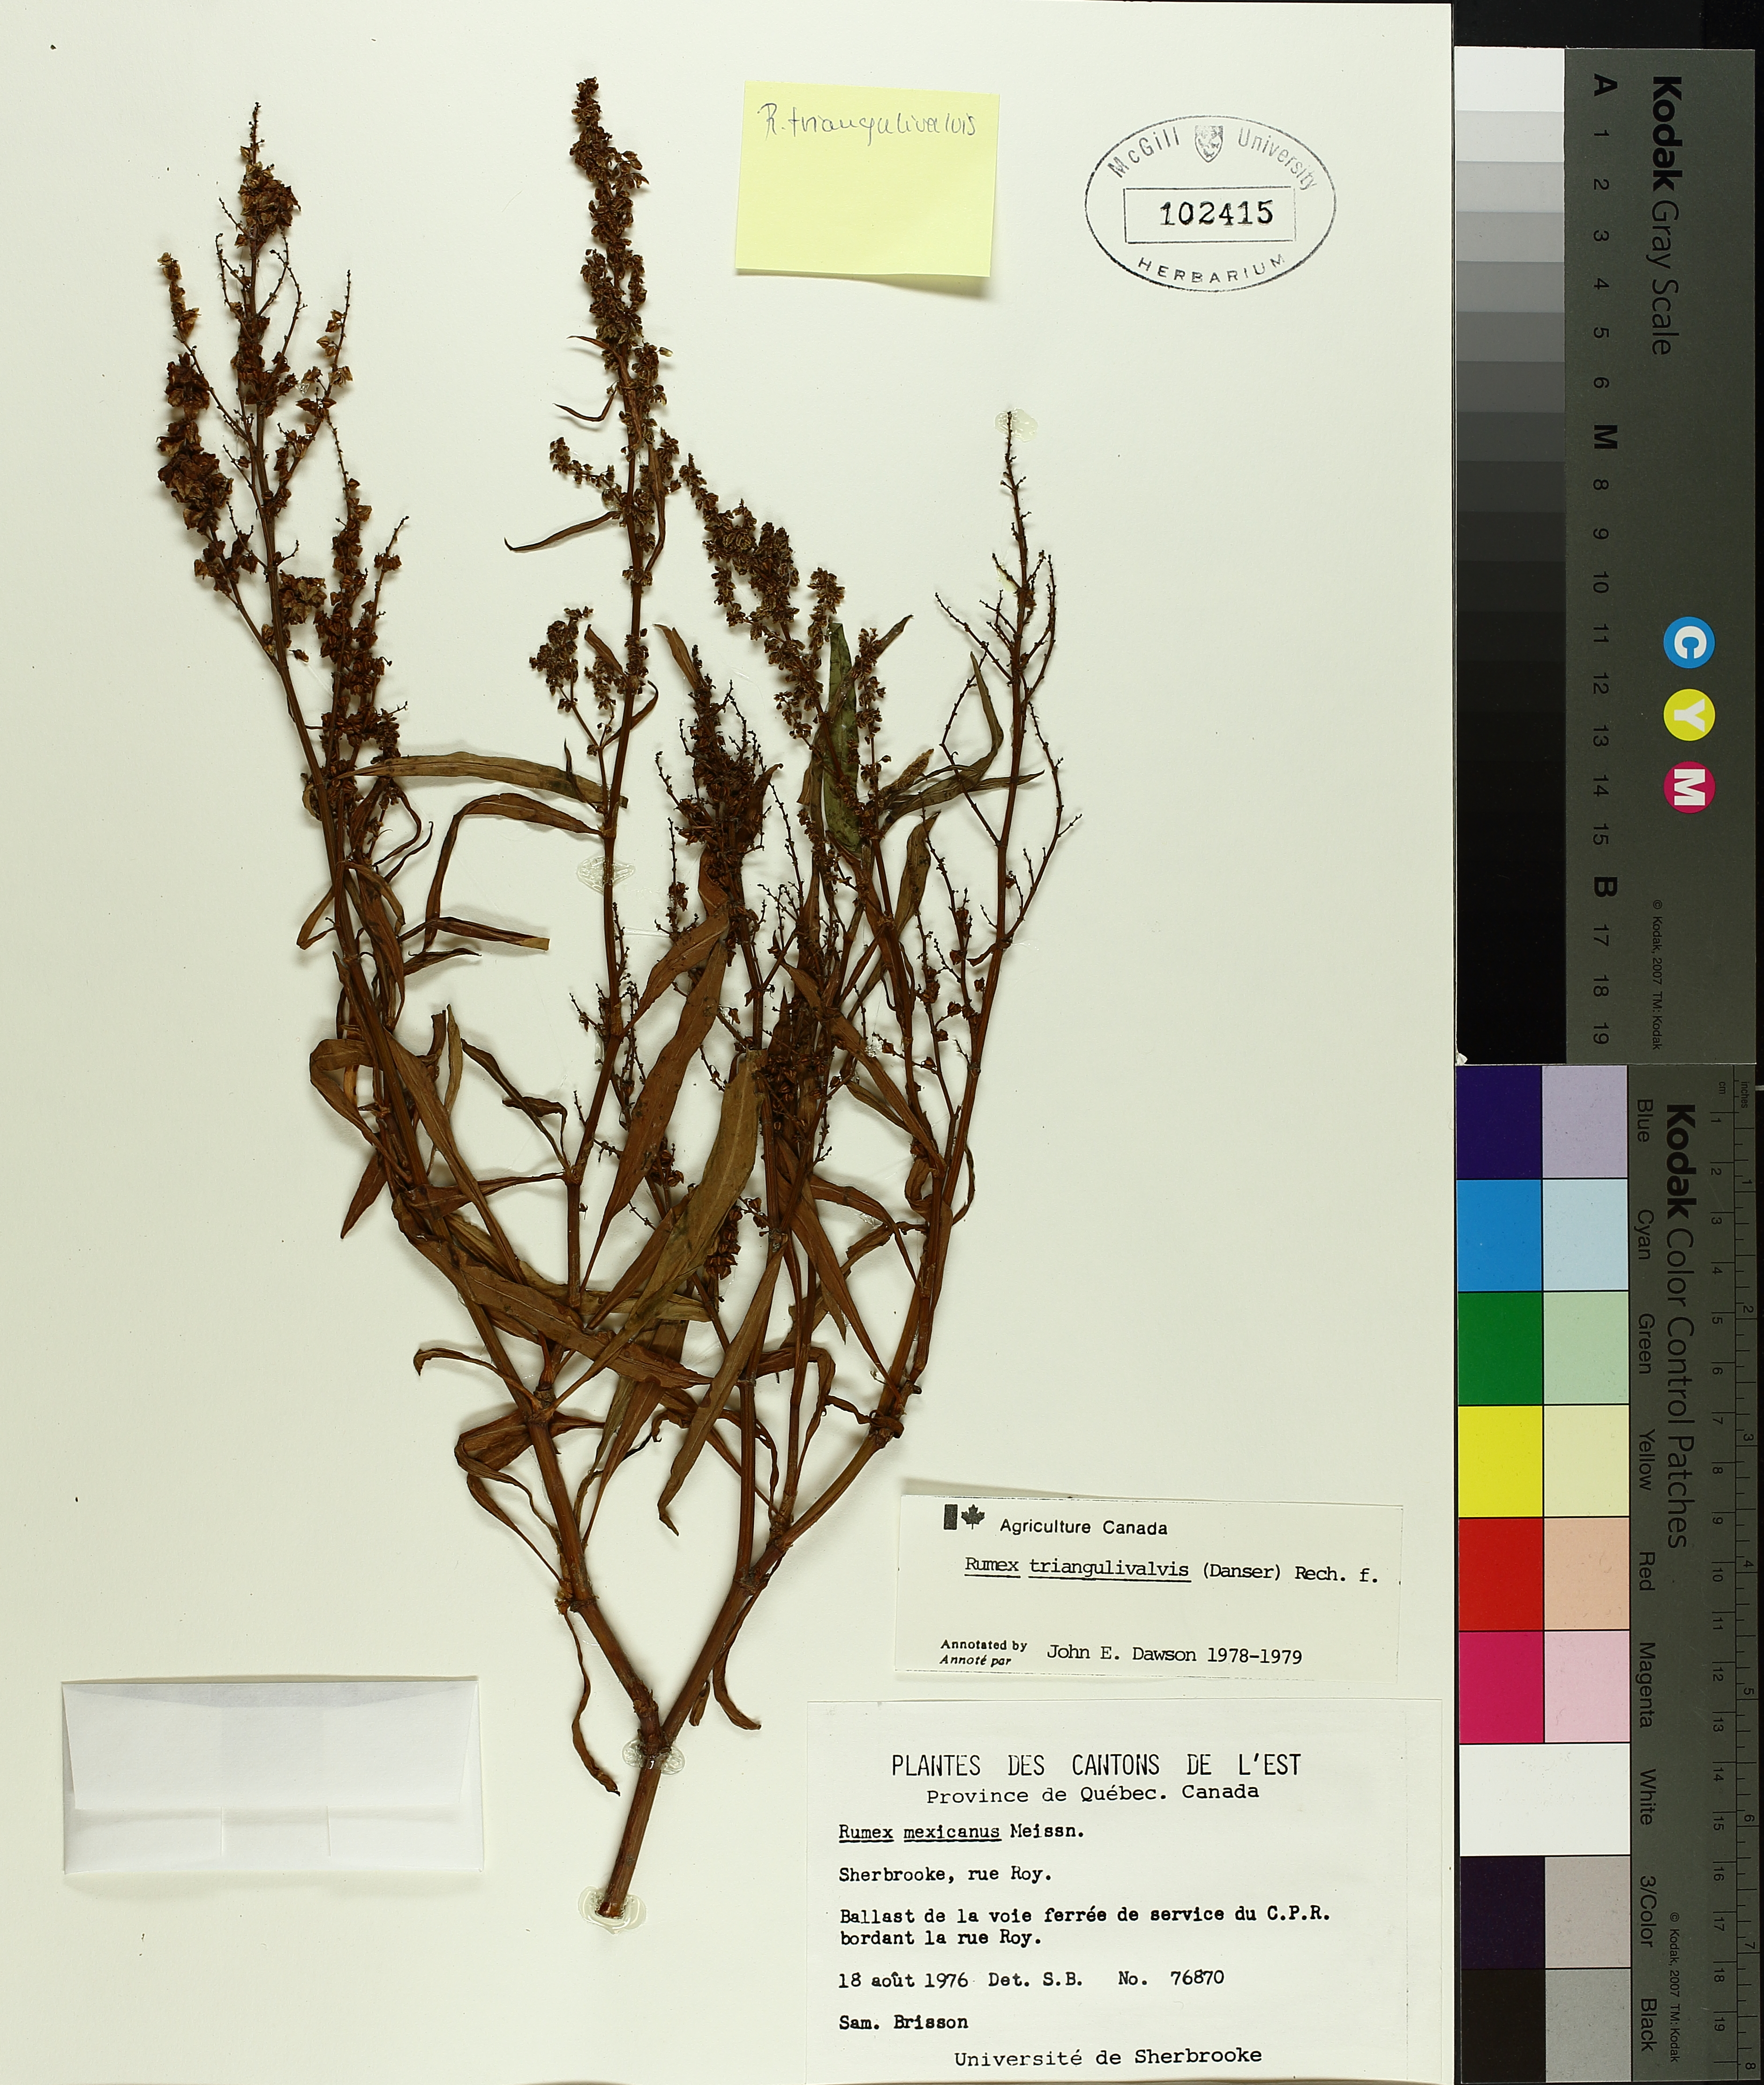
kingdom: Plantae
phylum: Tracheophyta
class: Magnoliopsida
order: Caryophyllales
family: Polygonaceae
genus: Rumex
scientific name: Rumex triangulivalvis
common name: Triangular-valve dock
